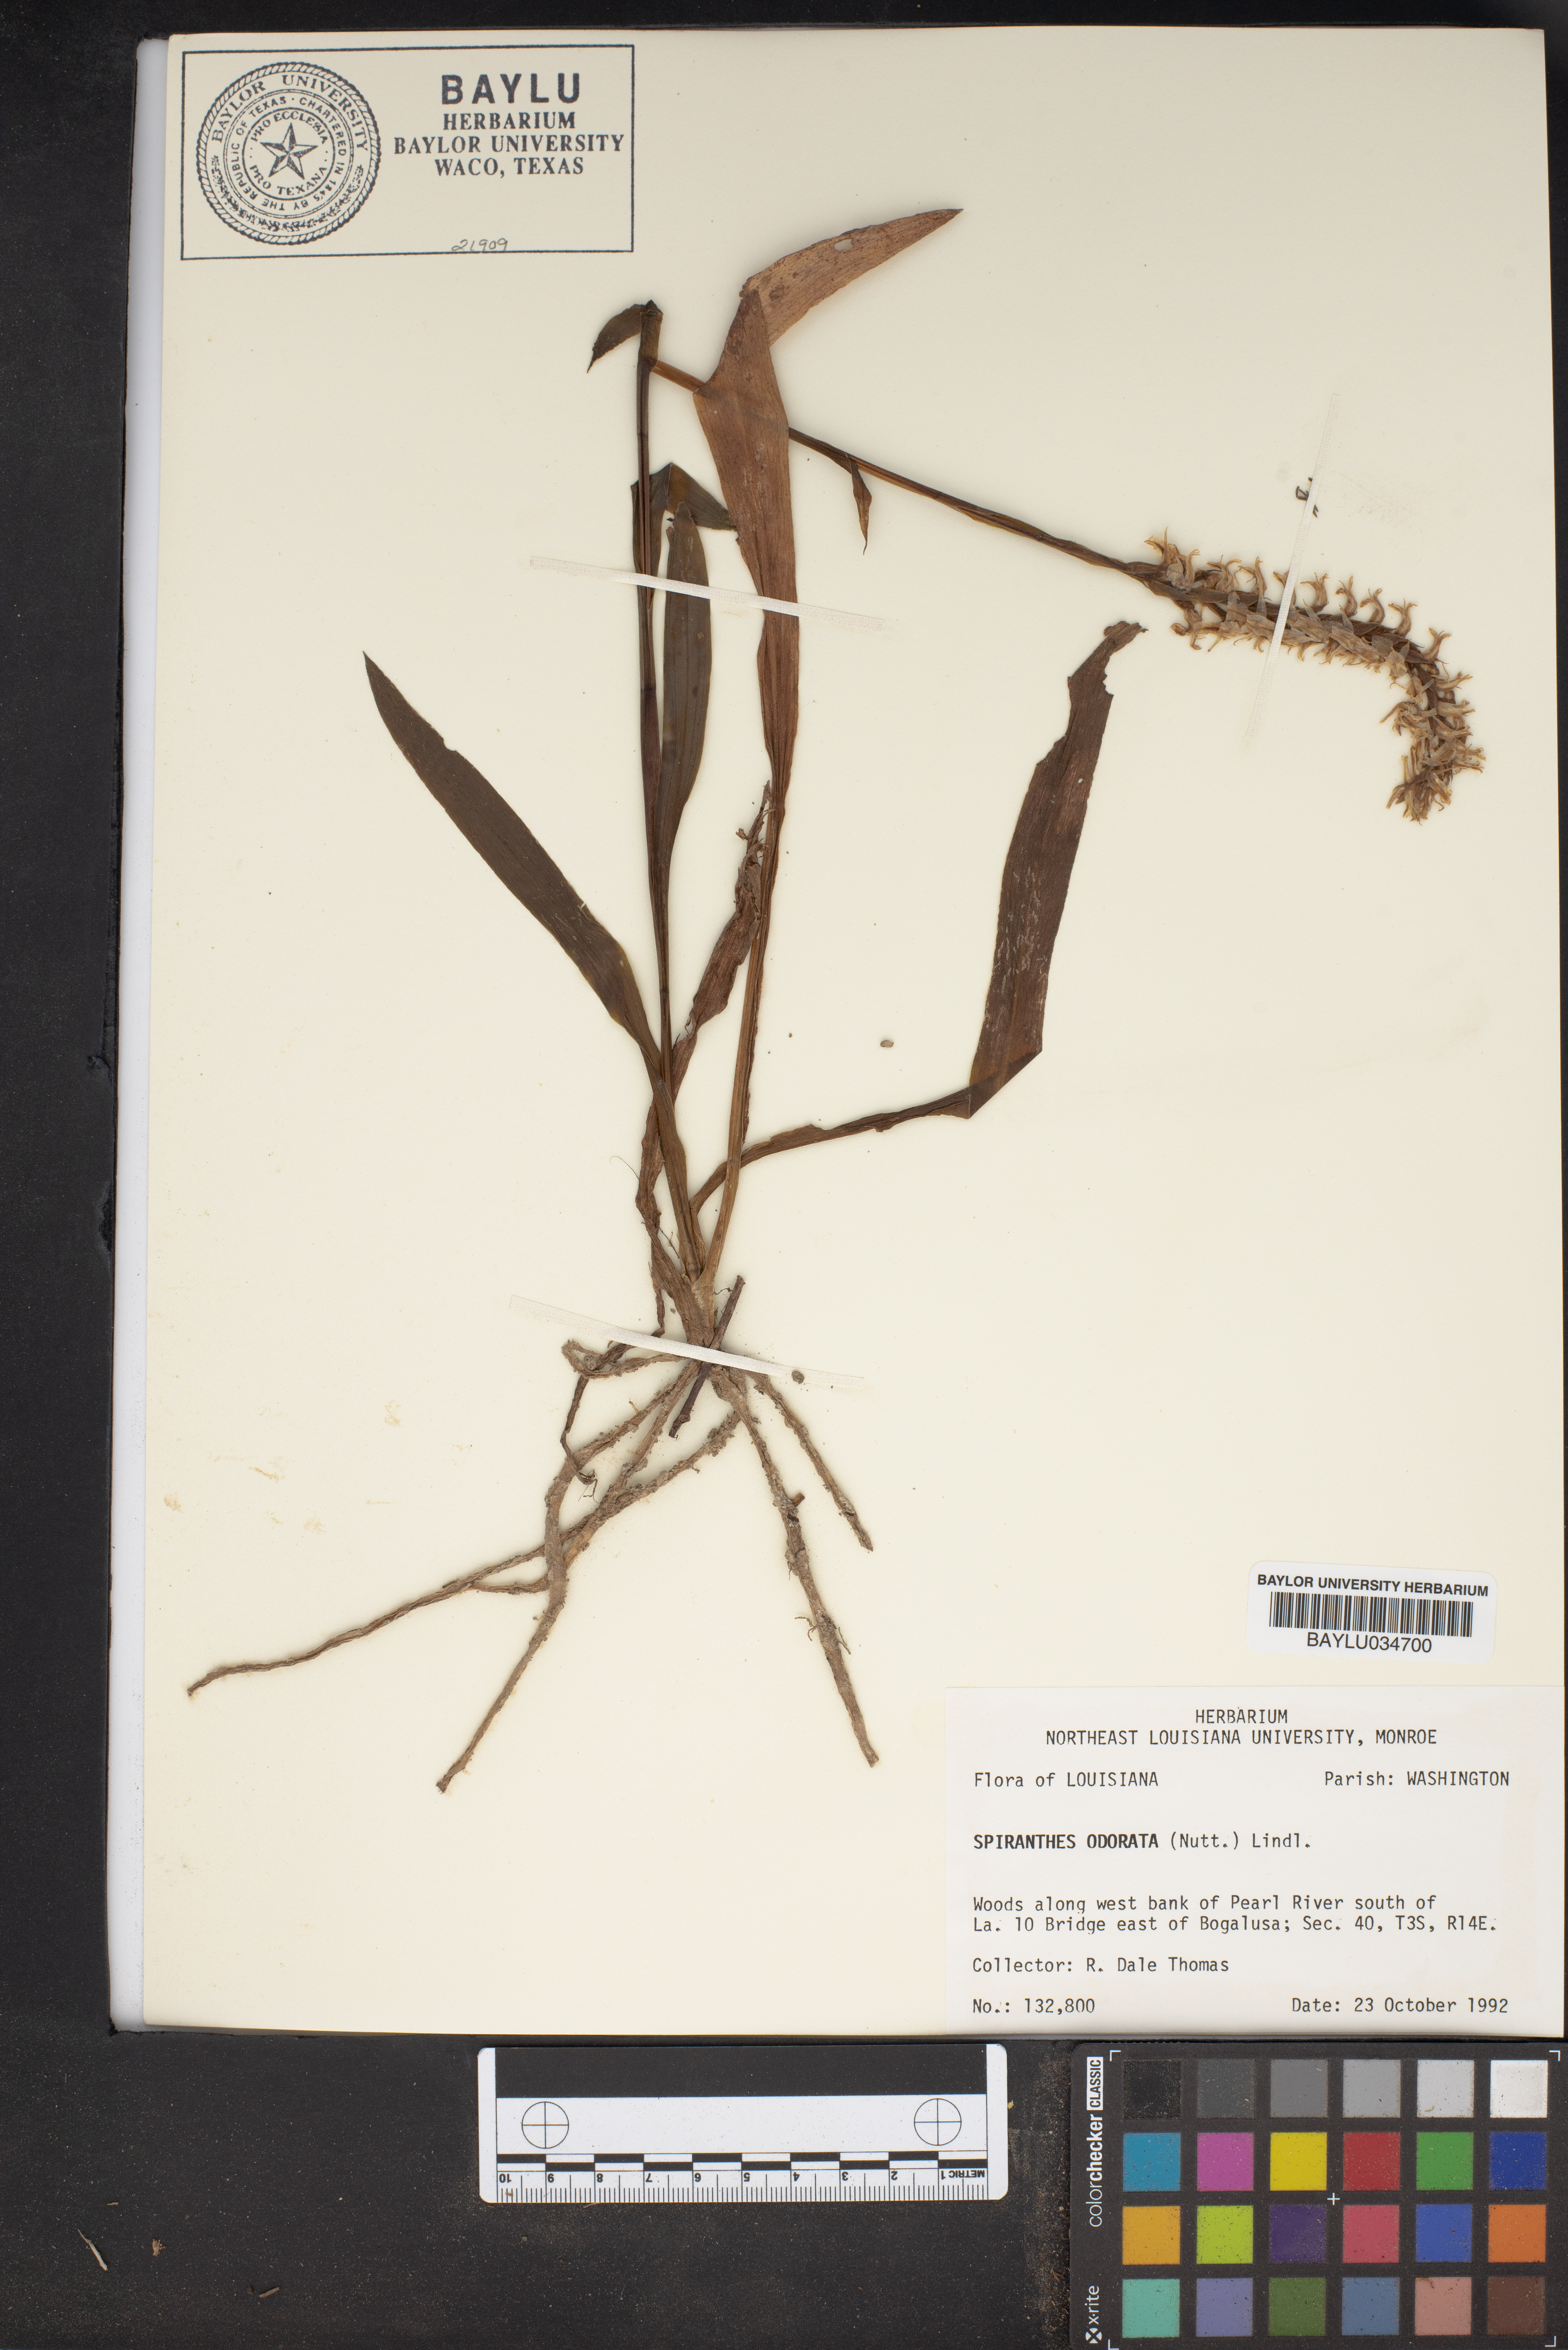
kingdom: Plantae
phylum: Tracheophyta
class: Liliopsida
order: Asparagales
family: Orchidaceae
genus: Spiranthes
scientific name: Spiranthes odorata
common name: Marsh ladies'-tresses
